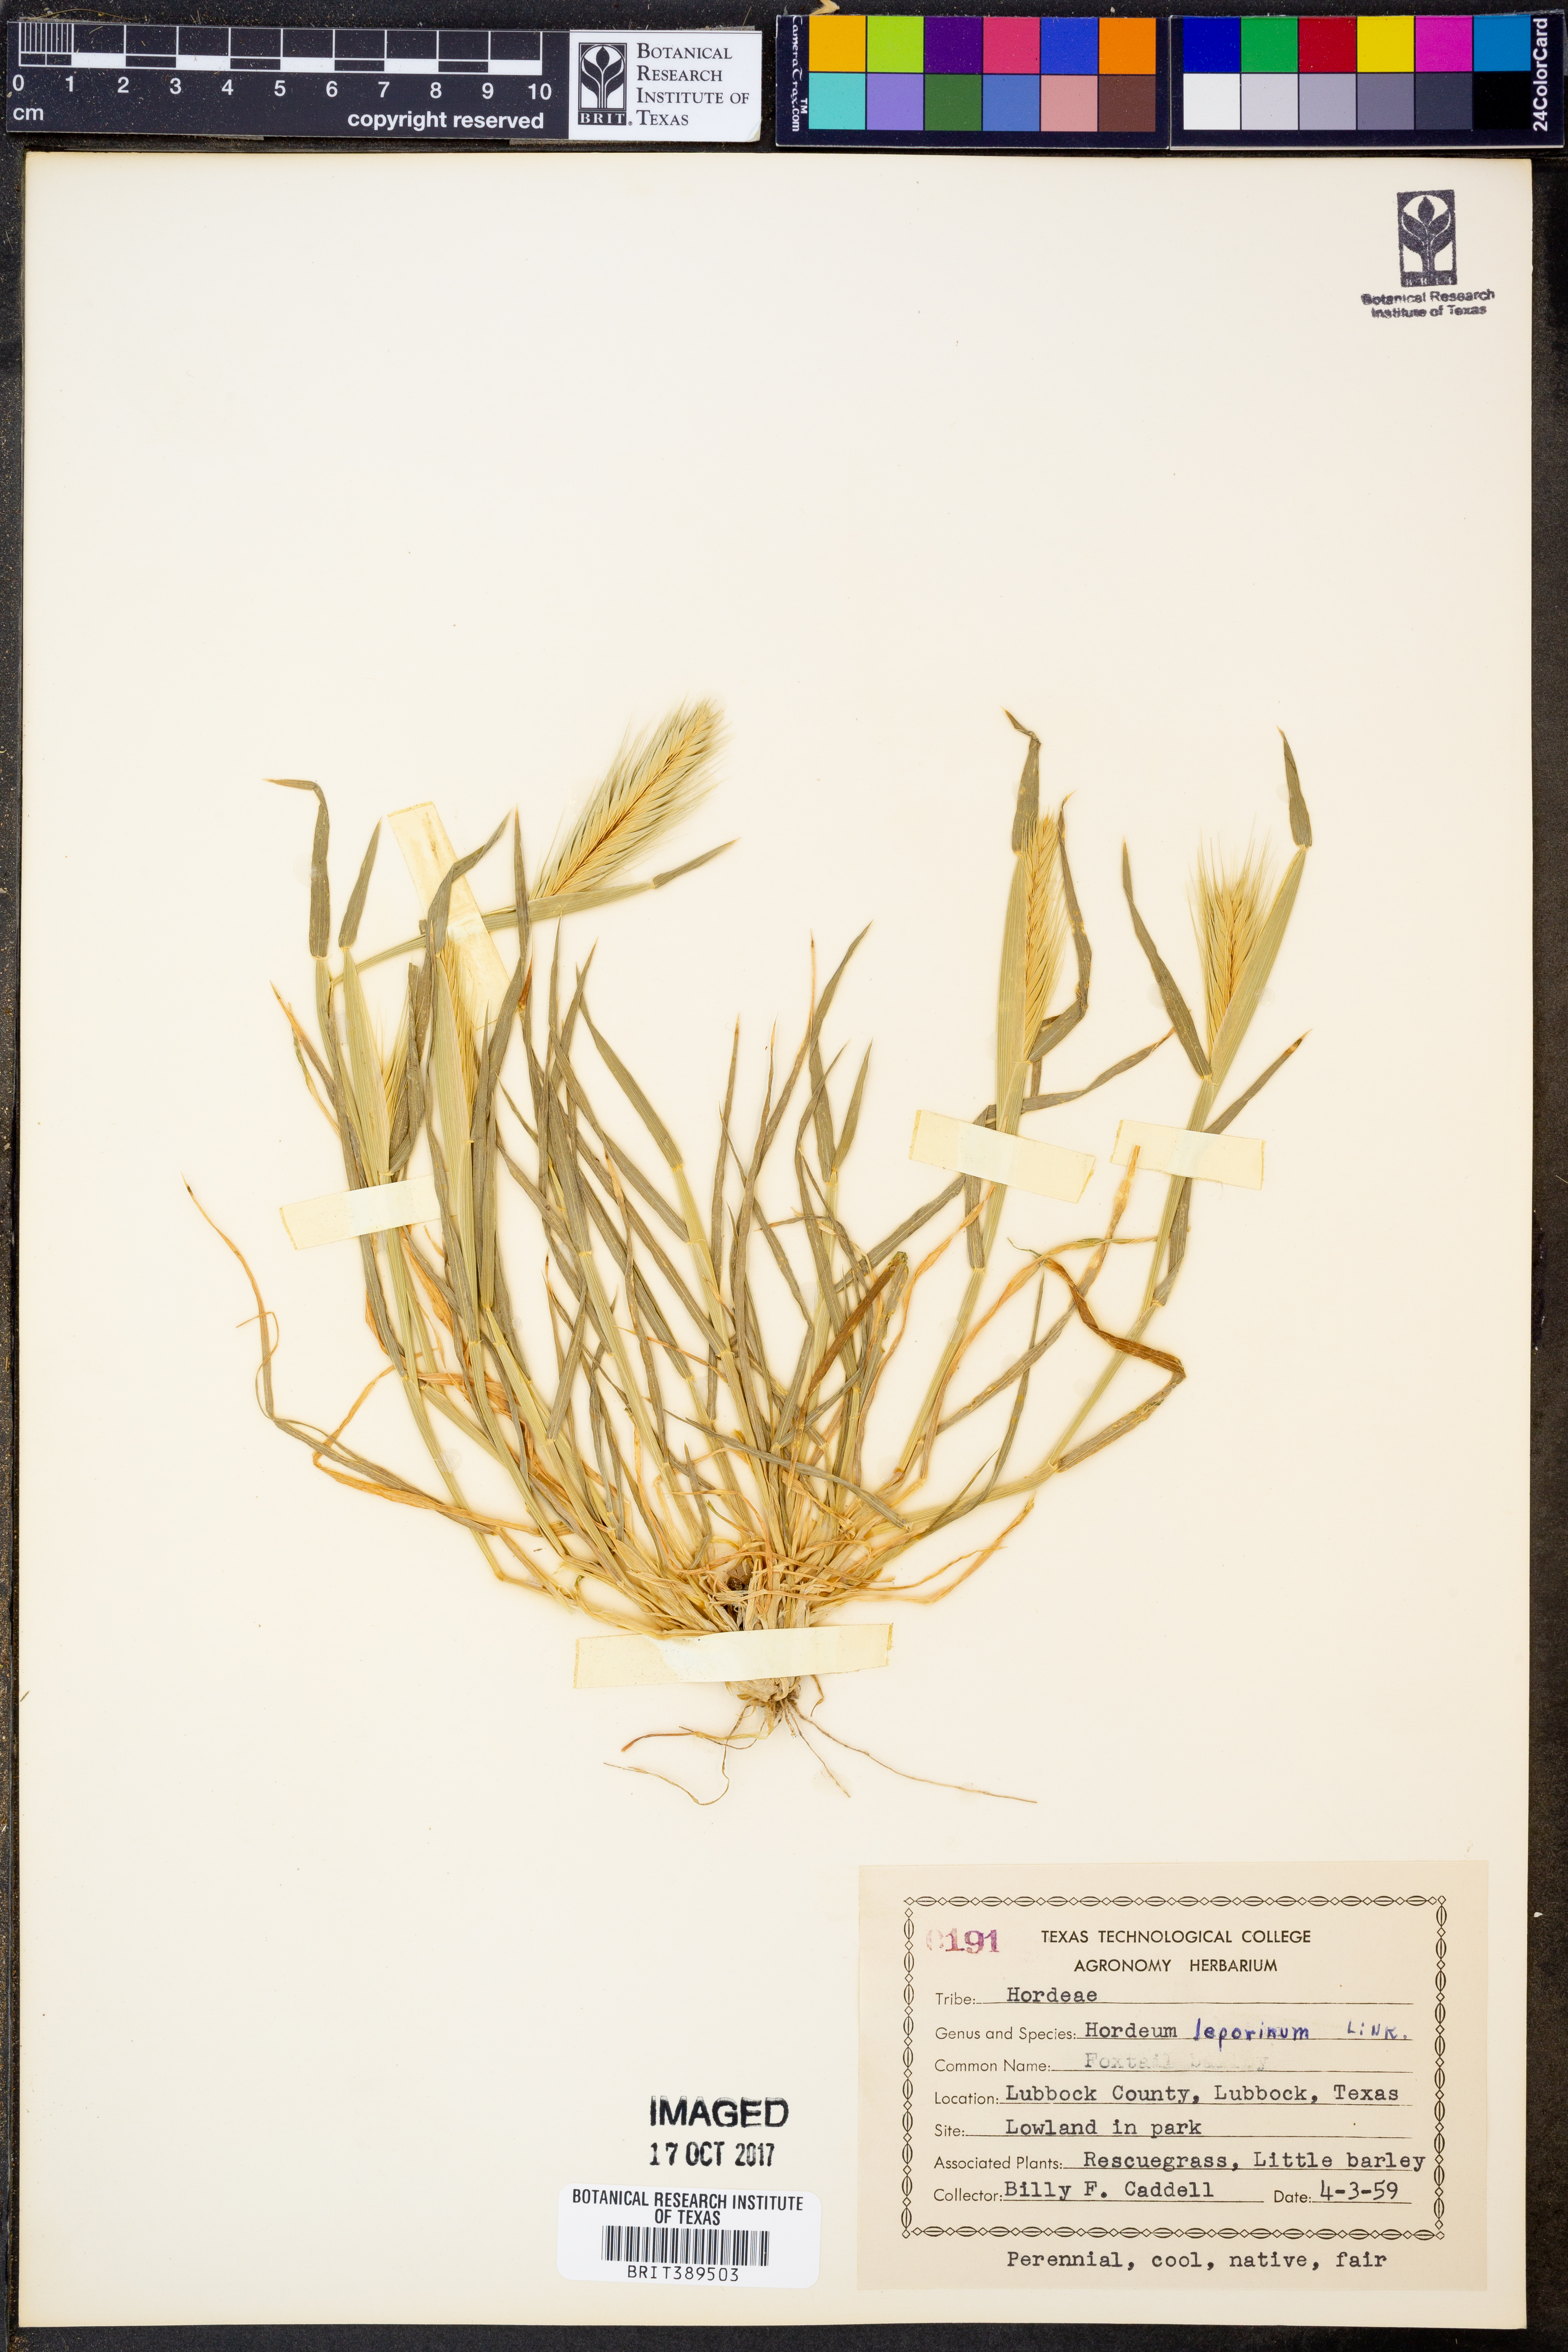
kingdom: Plantae
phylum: Tracheophyta
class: Liliopsida
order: Poales
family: Poaceae
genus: Hordeum
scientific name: Hordeum murinum
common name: Wall barley
